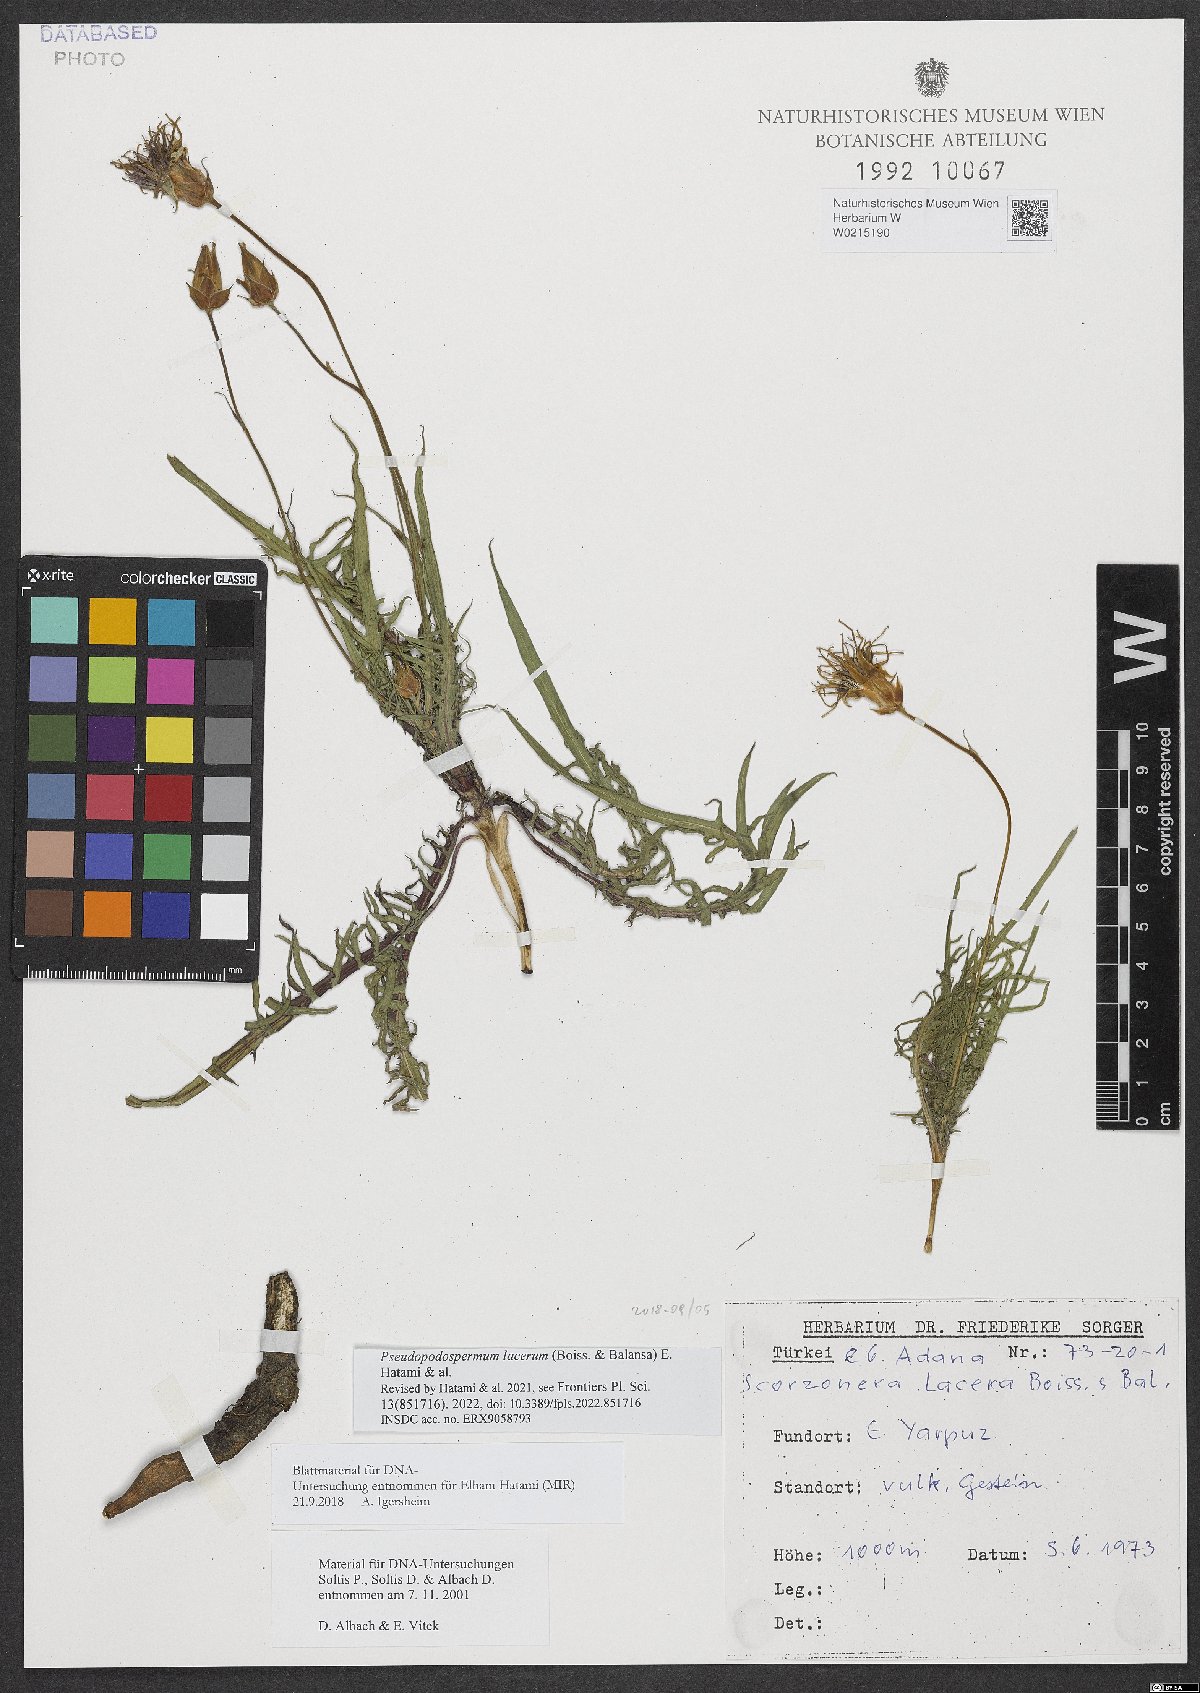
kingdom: Plantae
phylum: Tracheophyta
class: Magnoliopsida
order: Asterales
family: Asteraceae
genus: Aslia
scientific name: Aslia lacera
